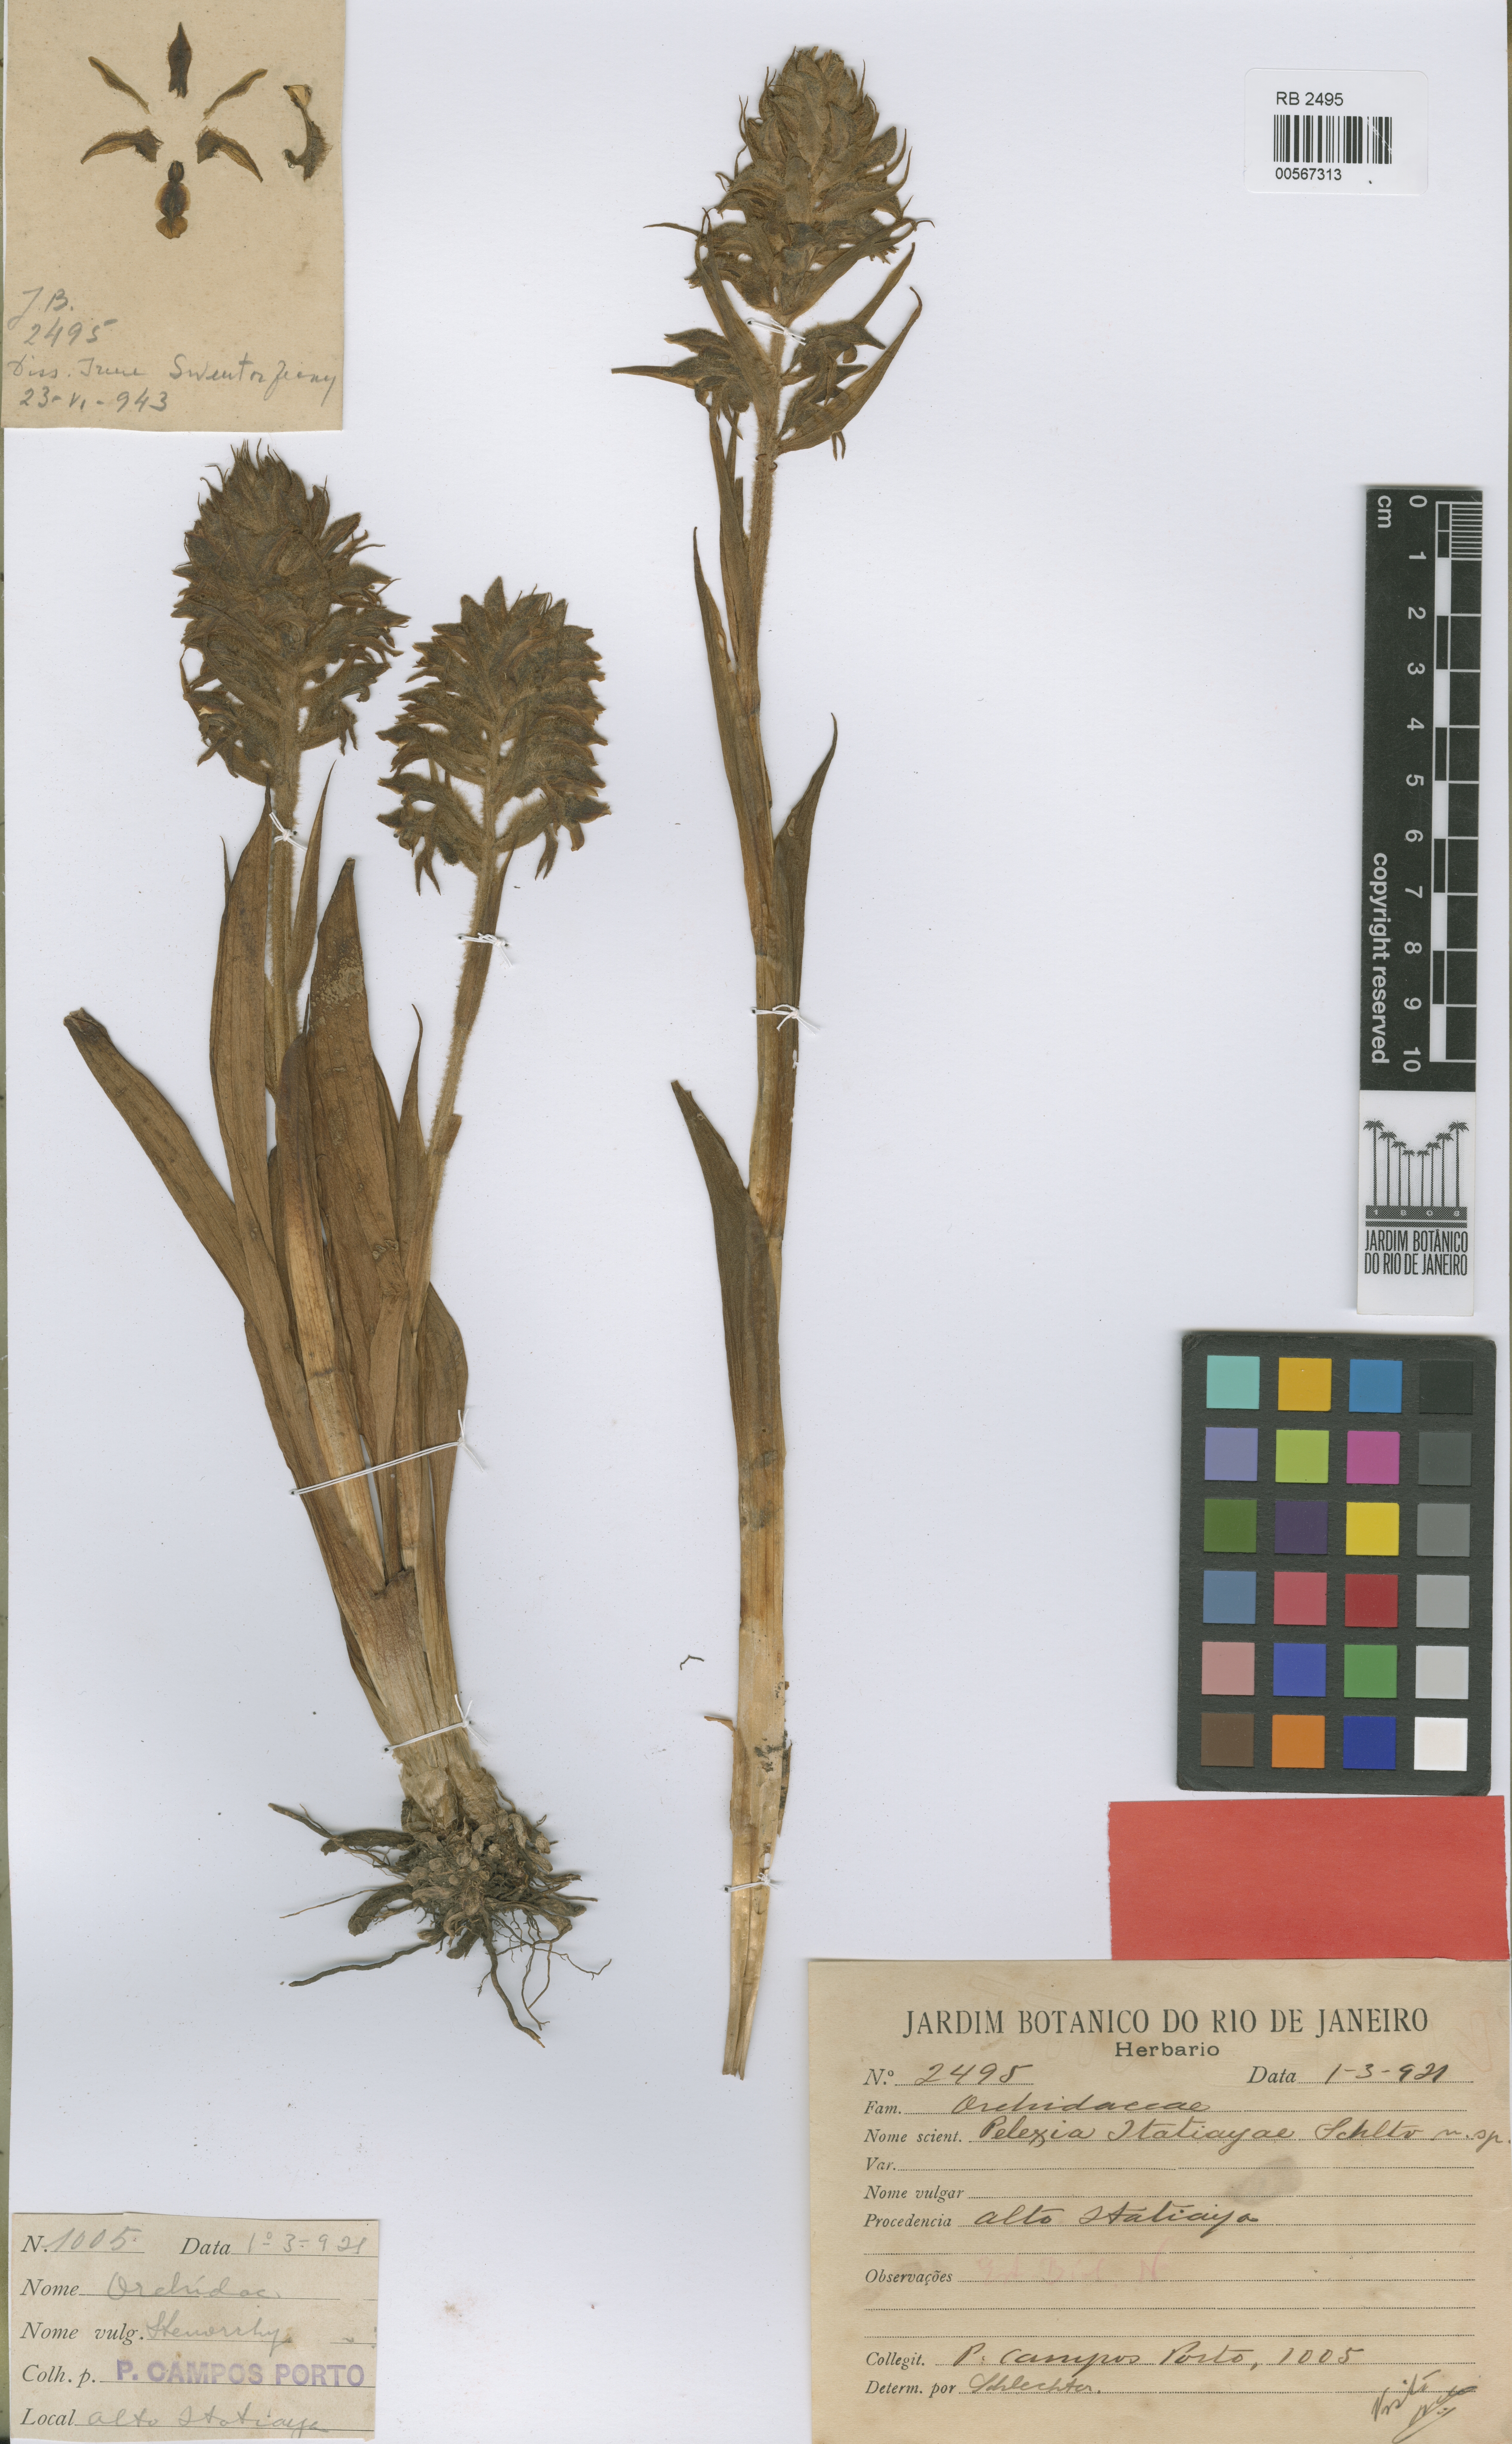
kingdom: Plantae
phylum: Tracheophyta
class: Liliopsida
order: Asparagales
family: Orchidaceae
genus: Pelexia
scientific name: Pelexia itatiayae
